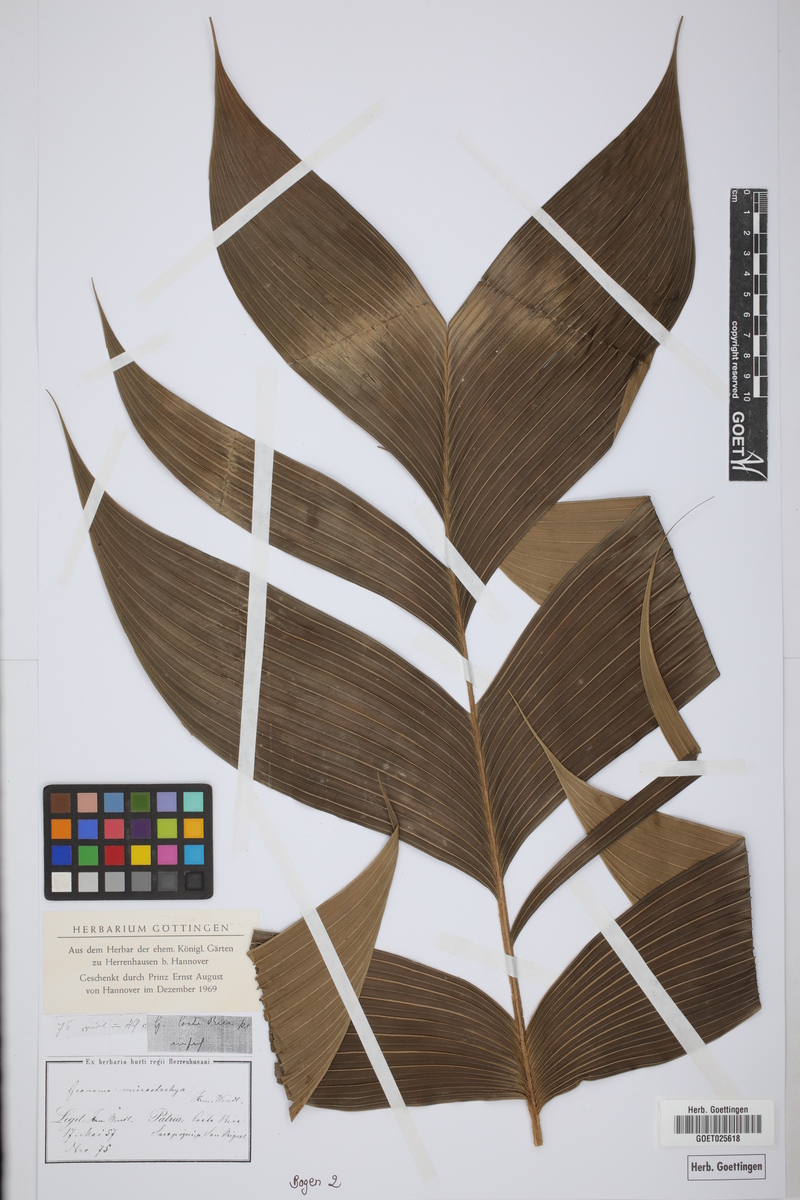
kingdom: Plantae
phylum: Tracheophyta
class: Liliopsida
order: Arecales
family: Arecaceae
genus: Geonoma
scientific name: Geonoma ferruginea
